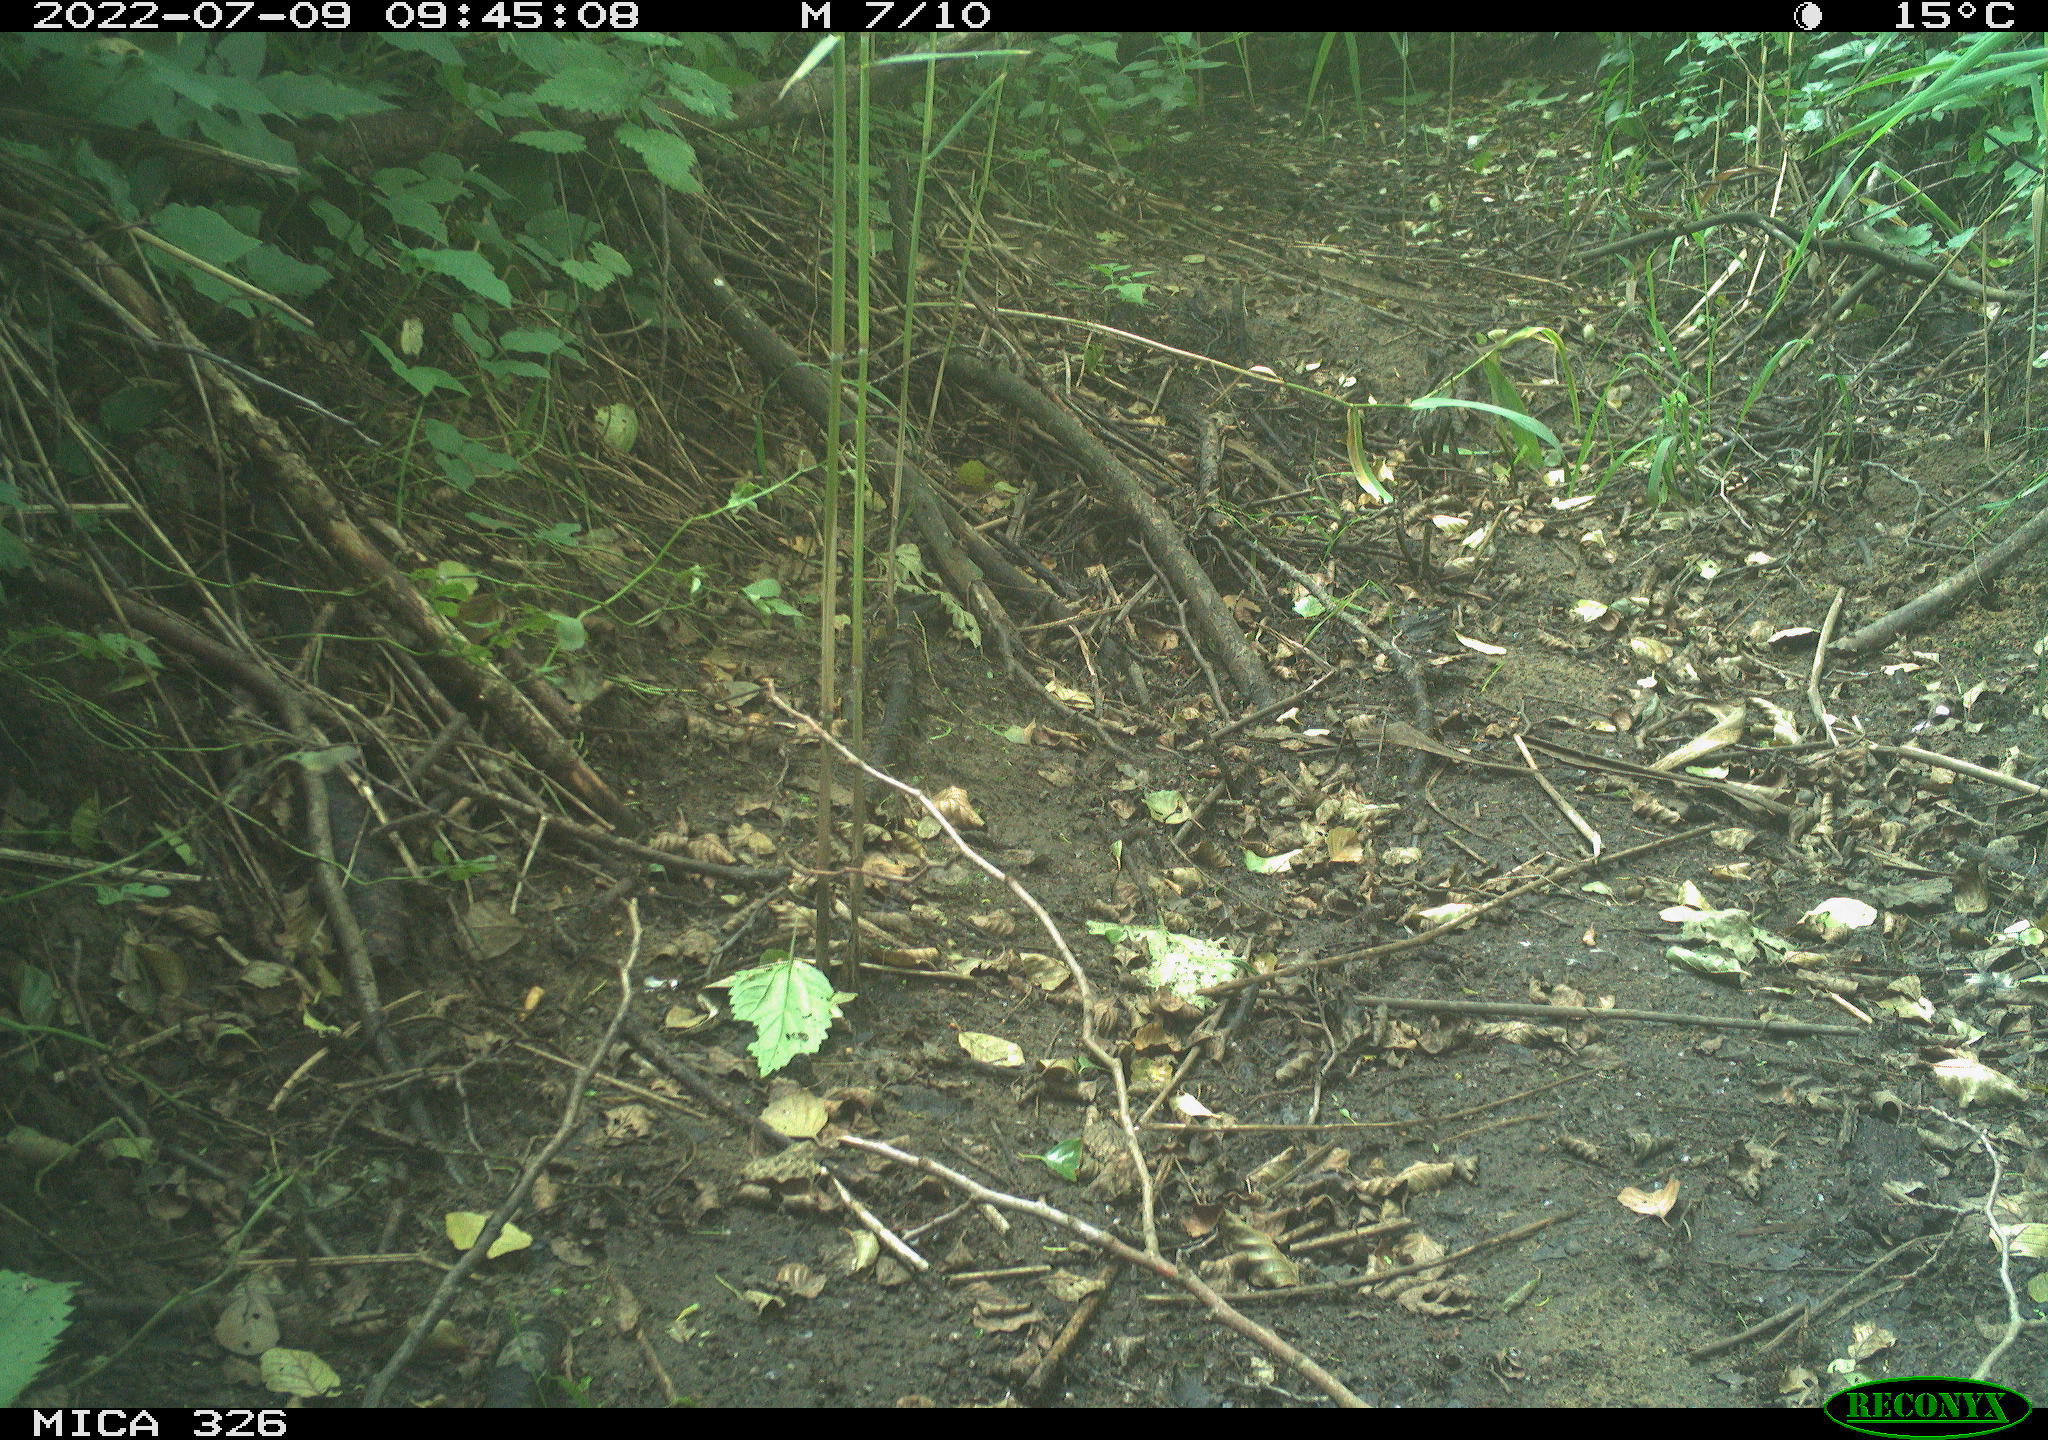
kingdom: Animalia
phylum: Chordata
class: Mammalia
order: Lagomorpha
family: Leporidae
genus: Lepus
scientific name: Lepus europaeus
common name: European hare
